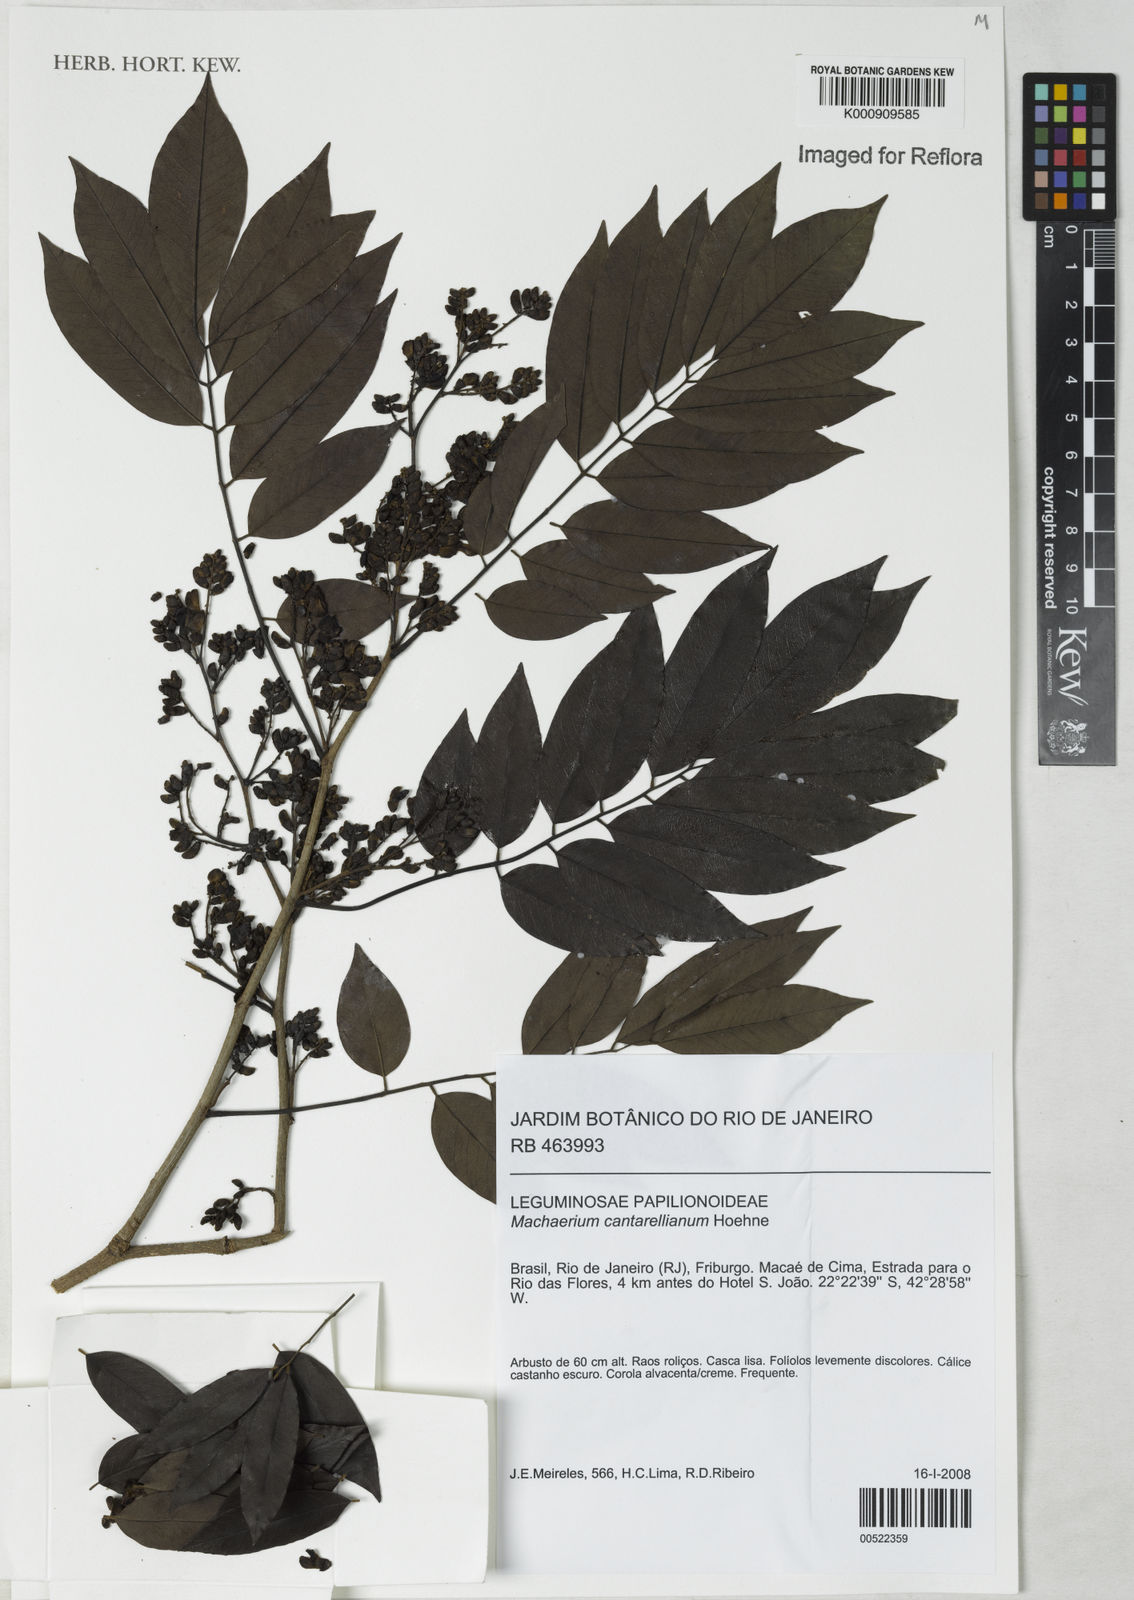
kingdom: Plantae
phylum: Tracheophyta
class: Magnoliopsida
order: Fabales
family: Fabaceae
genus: Machaerium
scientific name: Machaerium cantarellianum
